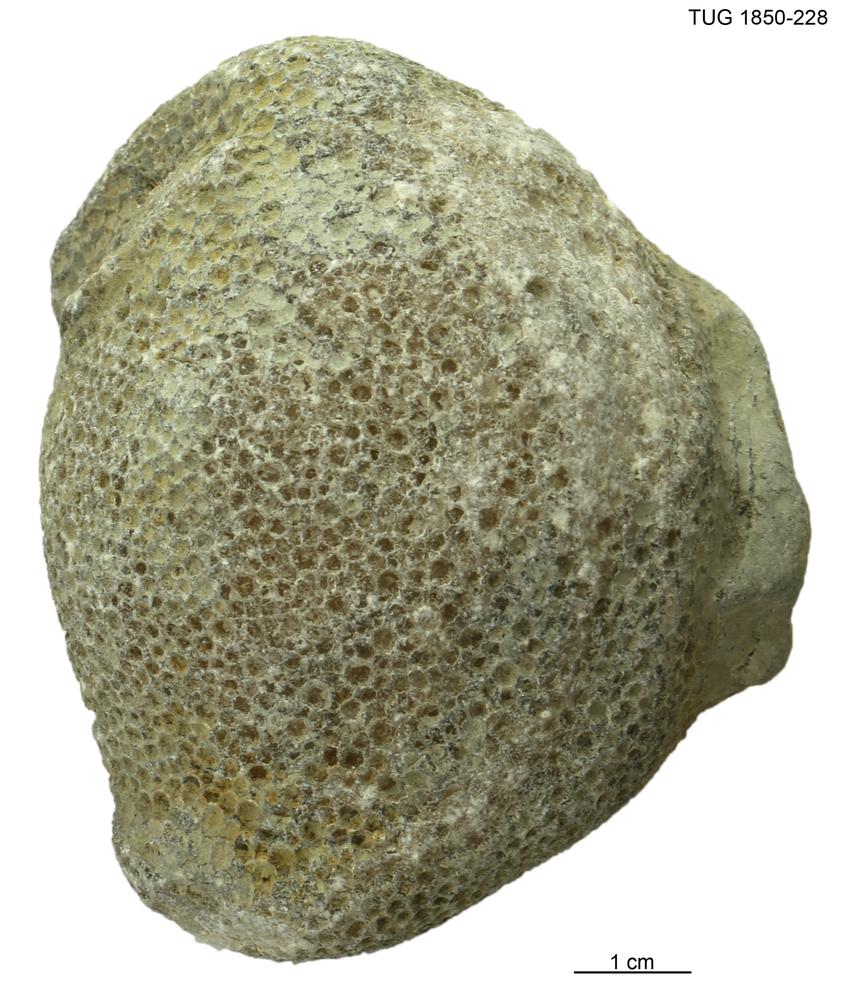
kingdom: Animalia
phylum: Cnidaria
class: Anthozoa
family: Favositidae
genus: Favosites
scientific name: Favosites
